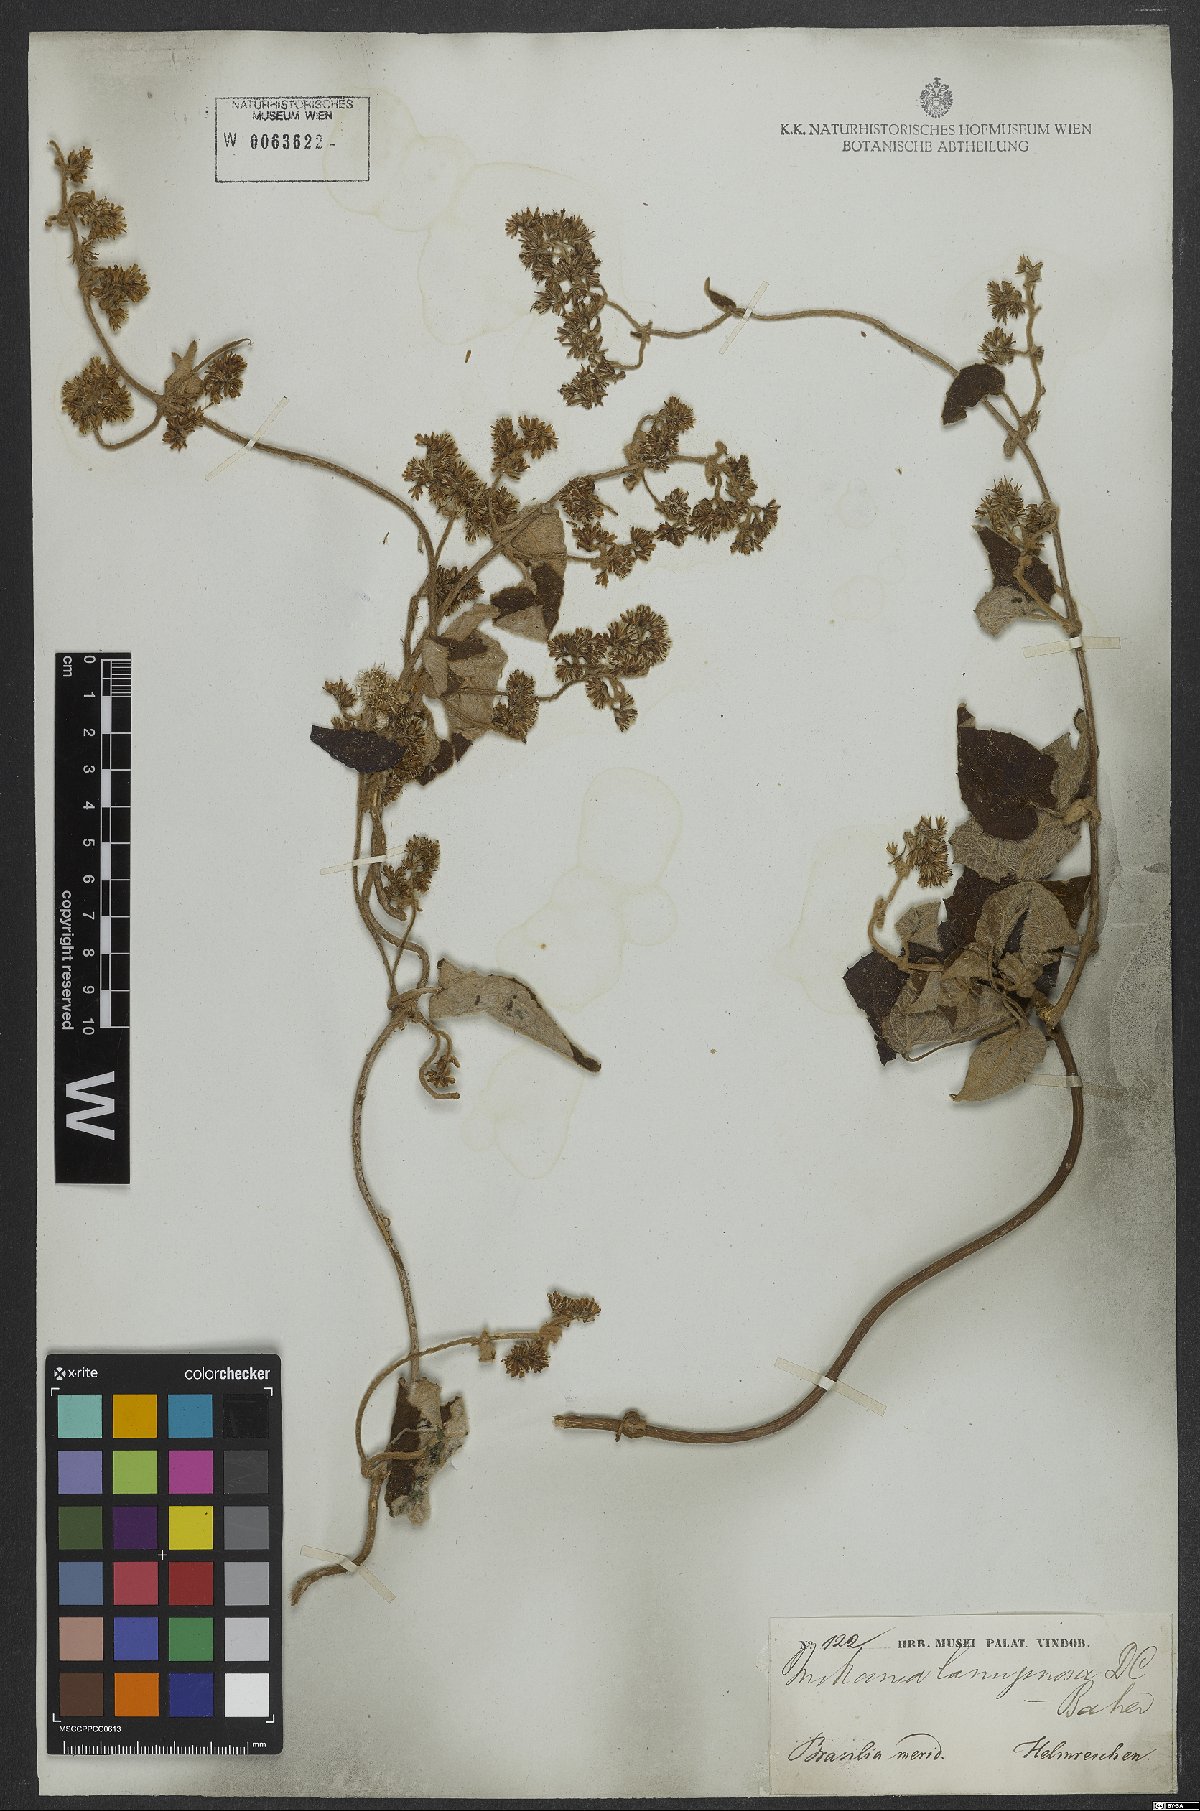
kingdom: Plantae
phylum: Tracheophyta
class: Magnoliopsida
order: Asterales
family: Asteraceae
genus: Mikania
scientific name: Mikania banisteriae
